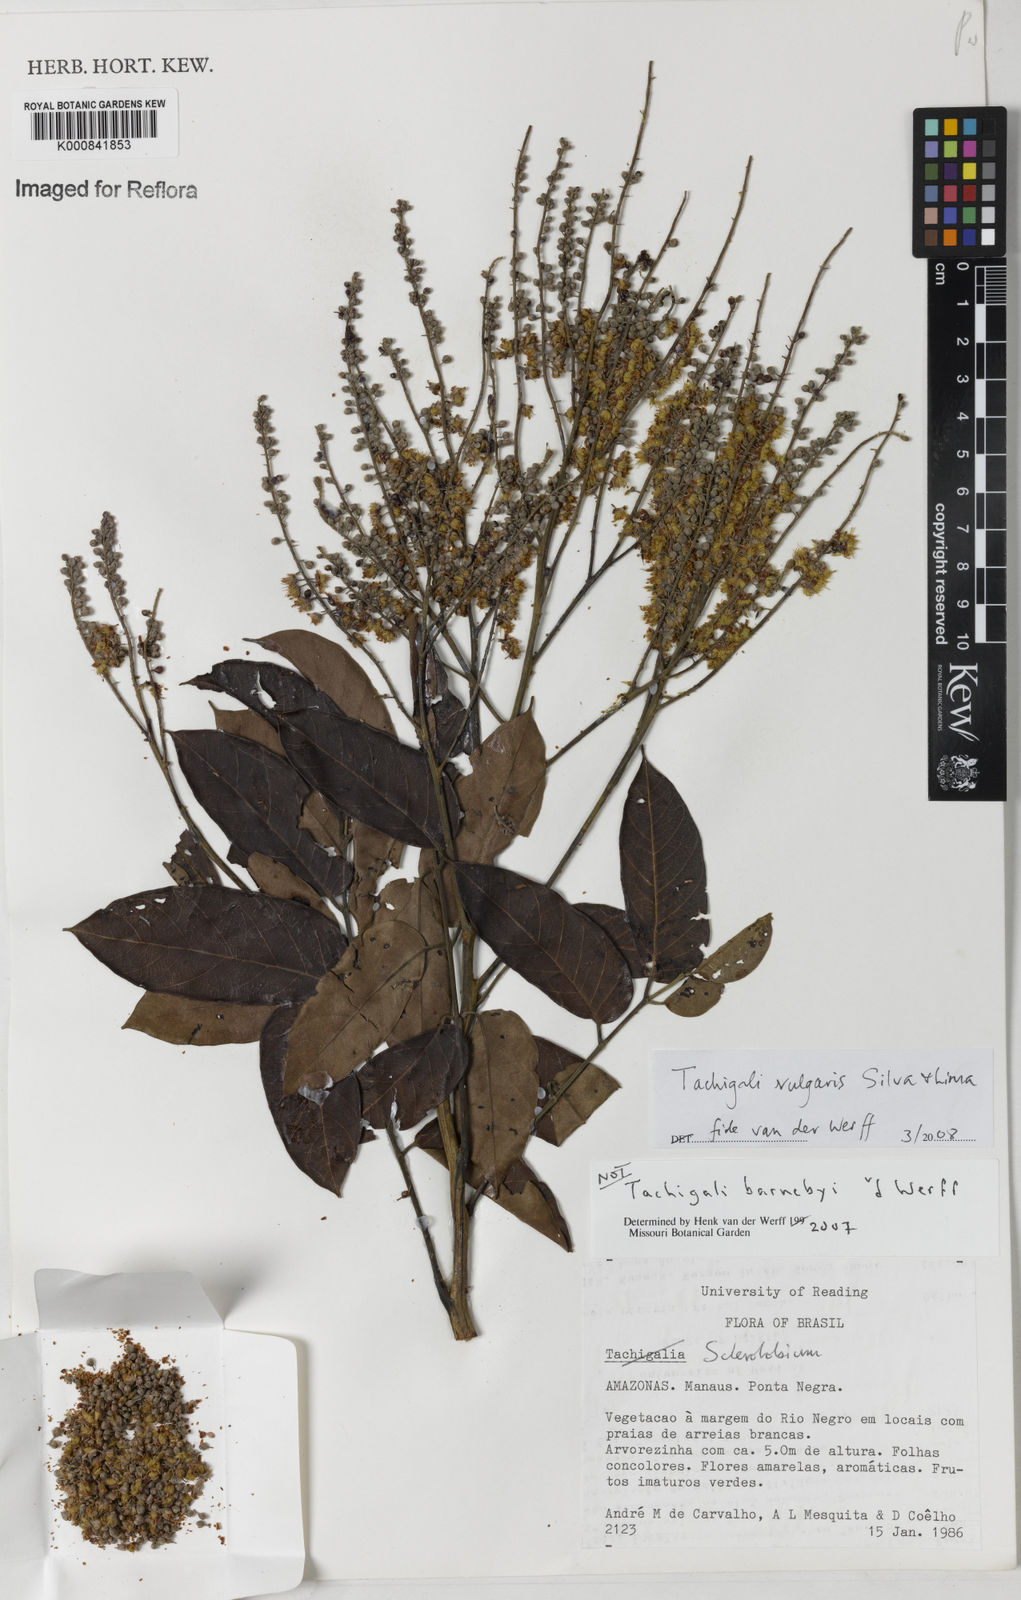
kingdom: Plantae
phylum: Tracheophyta
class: Magnoliopsida
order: Fabales
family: Fabaceae
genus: Tachigali
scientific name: Tachigali vulgaris
